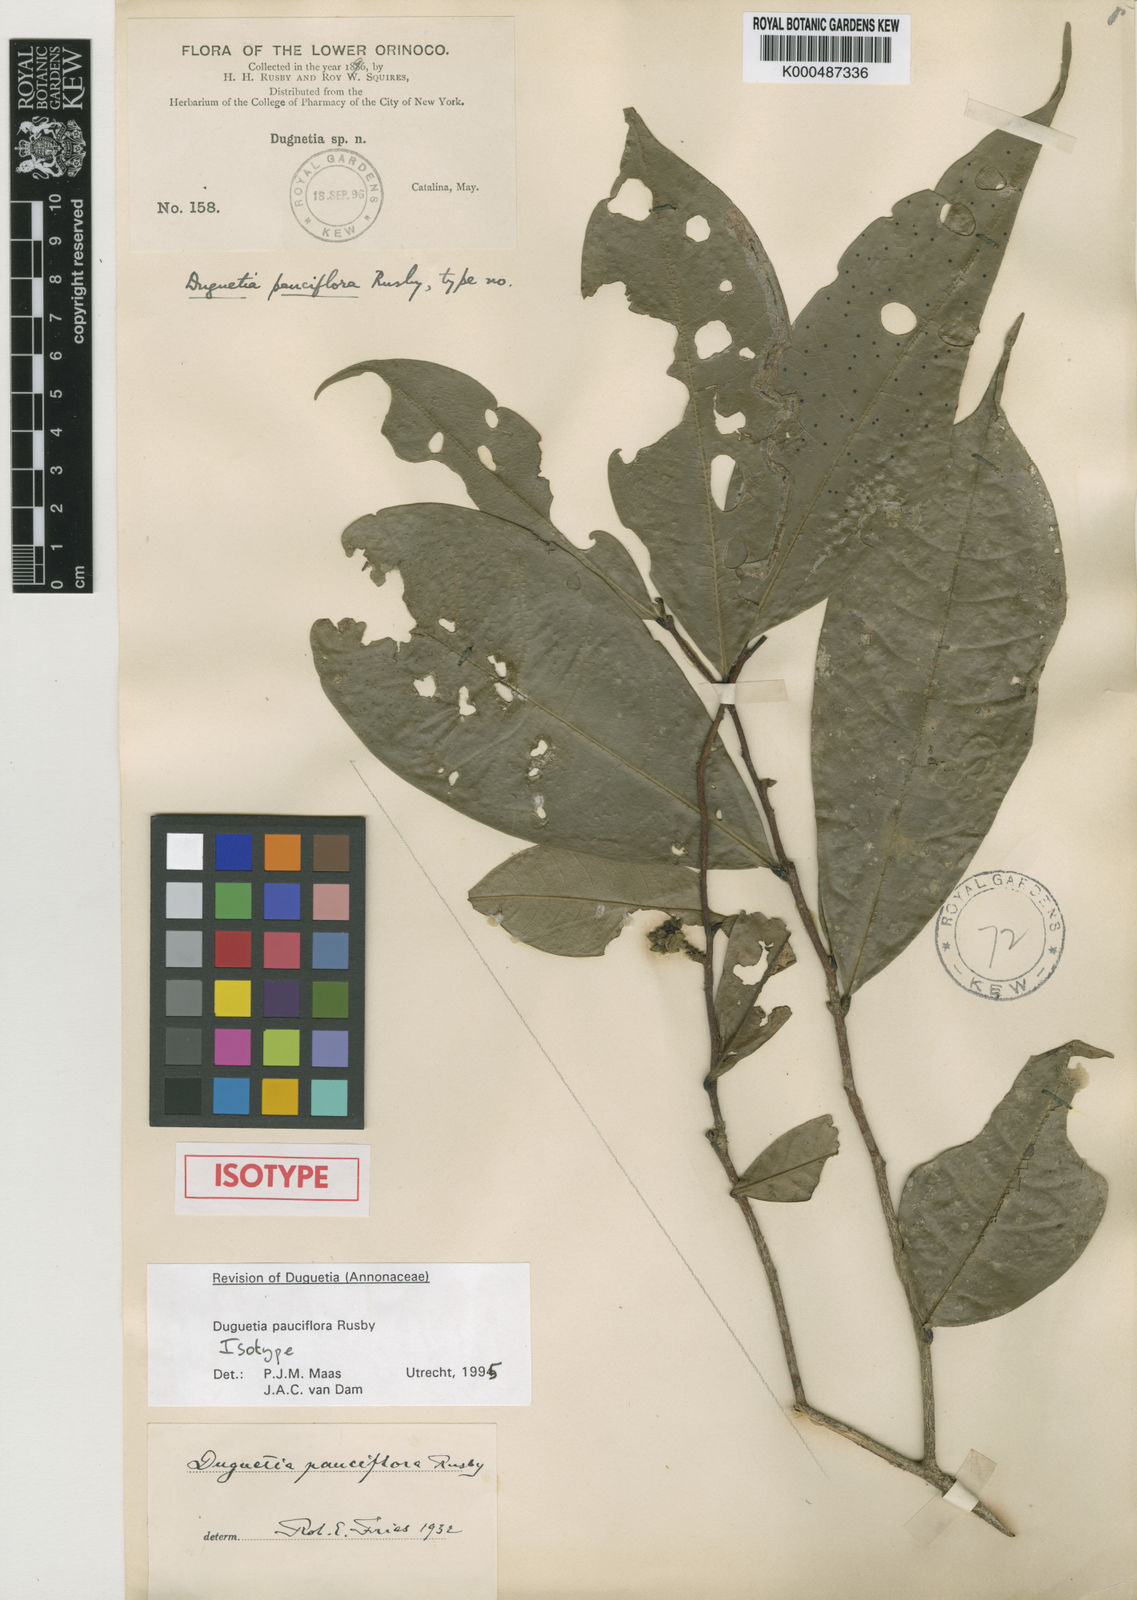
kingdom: Plantae
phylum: Tracheophyta
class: Magnoliopsida
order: Magnoliales
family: Annonaceae
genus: Duguetia
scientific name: Duguetia pauciflora
